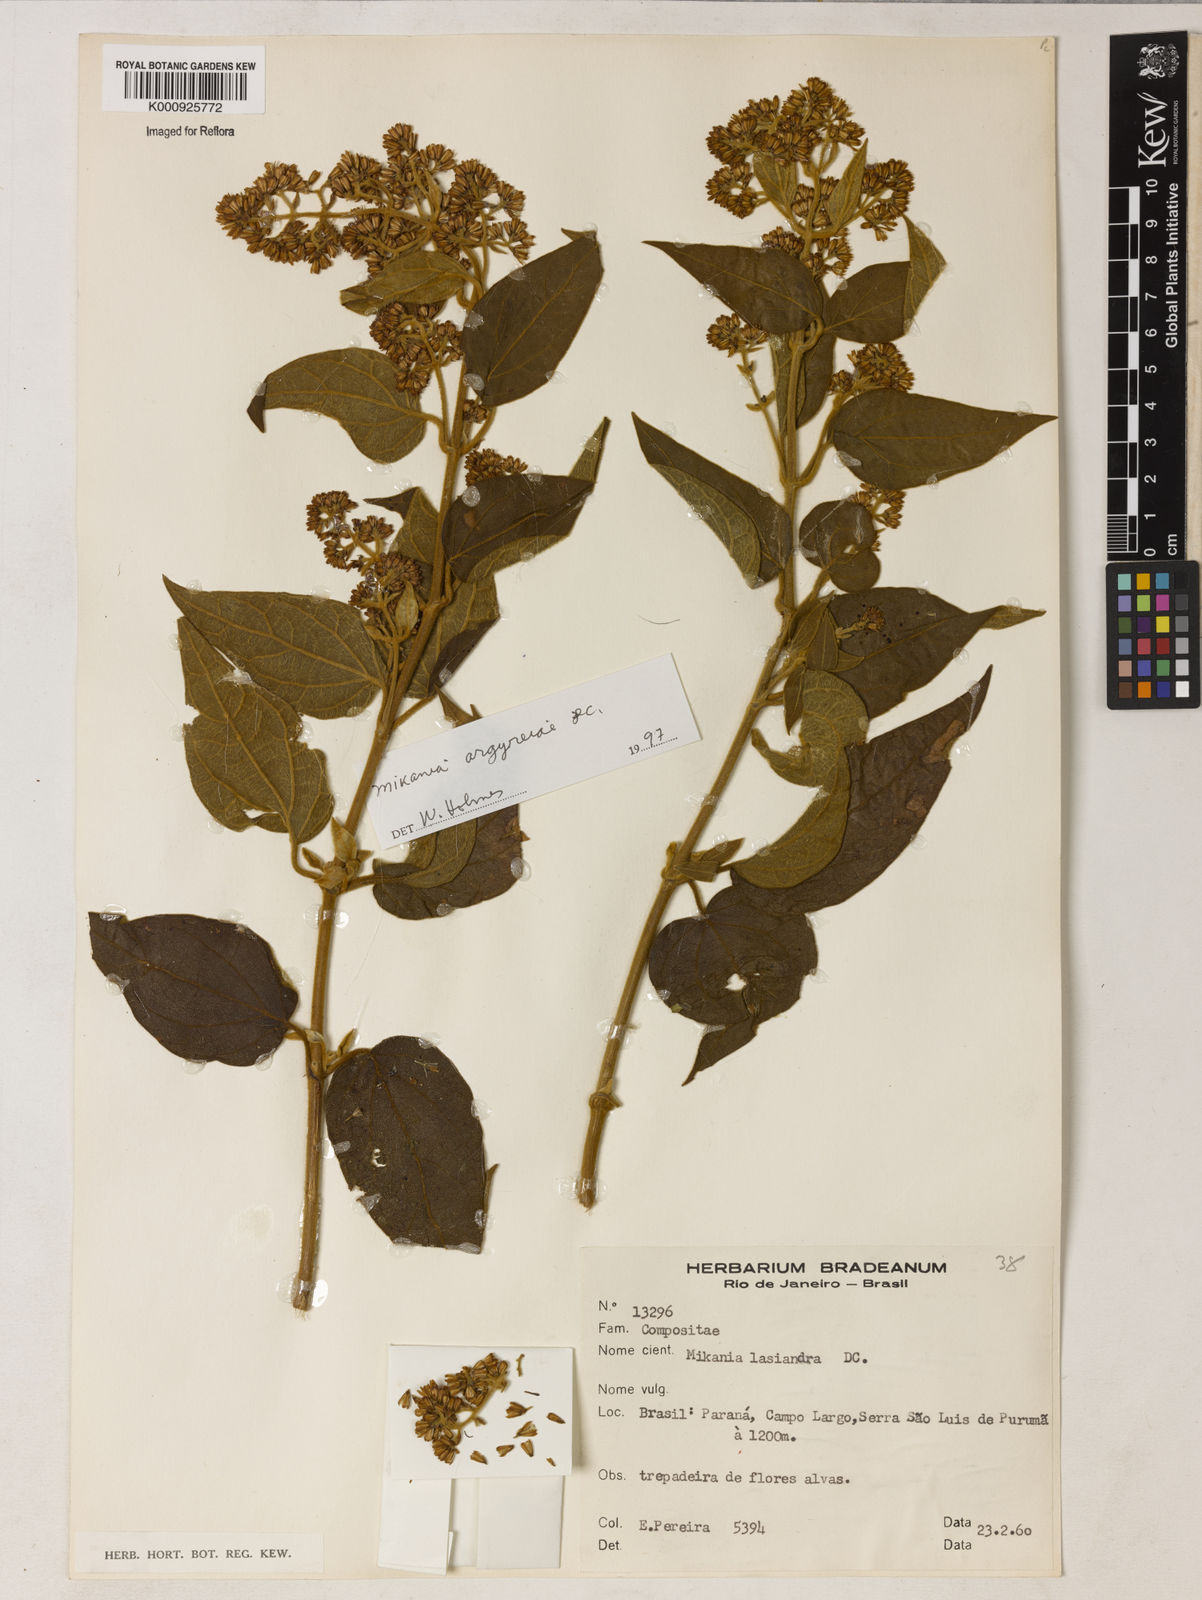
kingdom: Plantae
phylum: Tracheophyta
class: Magnoliopsida
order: Asterales
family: Asteraceae
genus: Mikania
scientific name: Mikania lasiandrae
